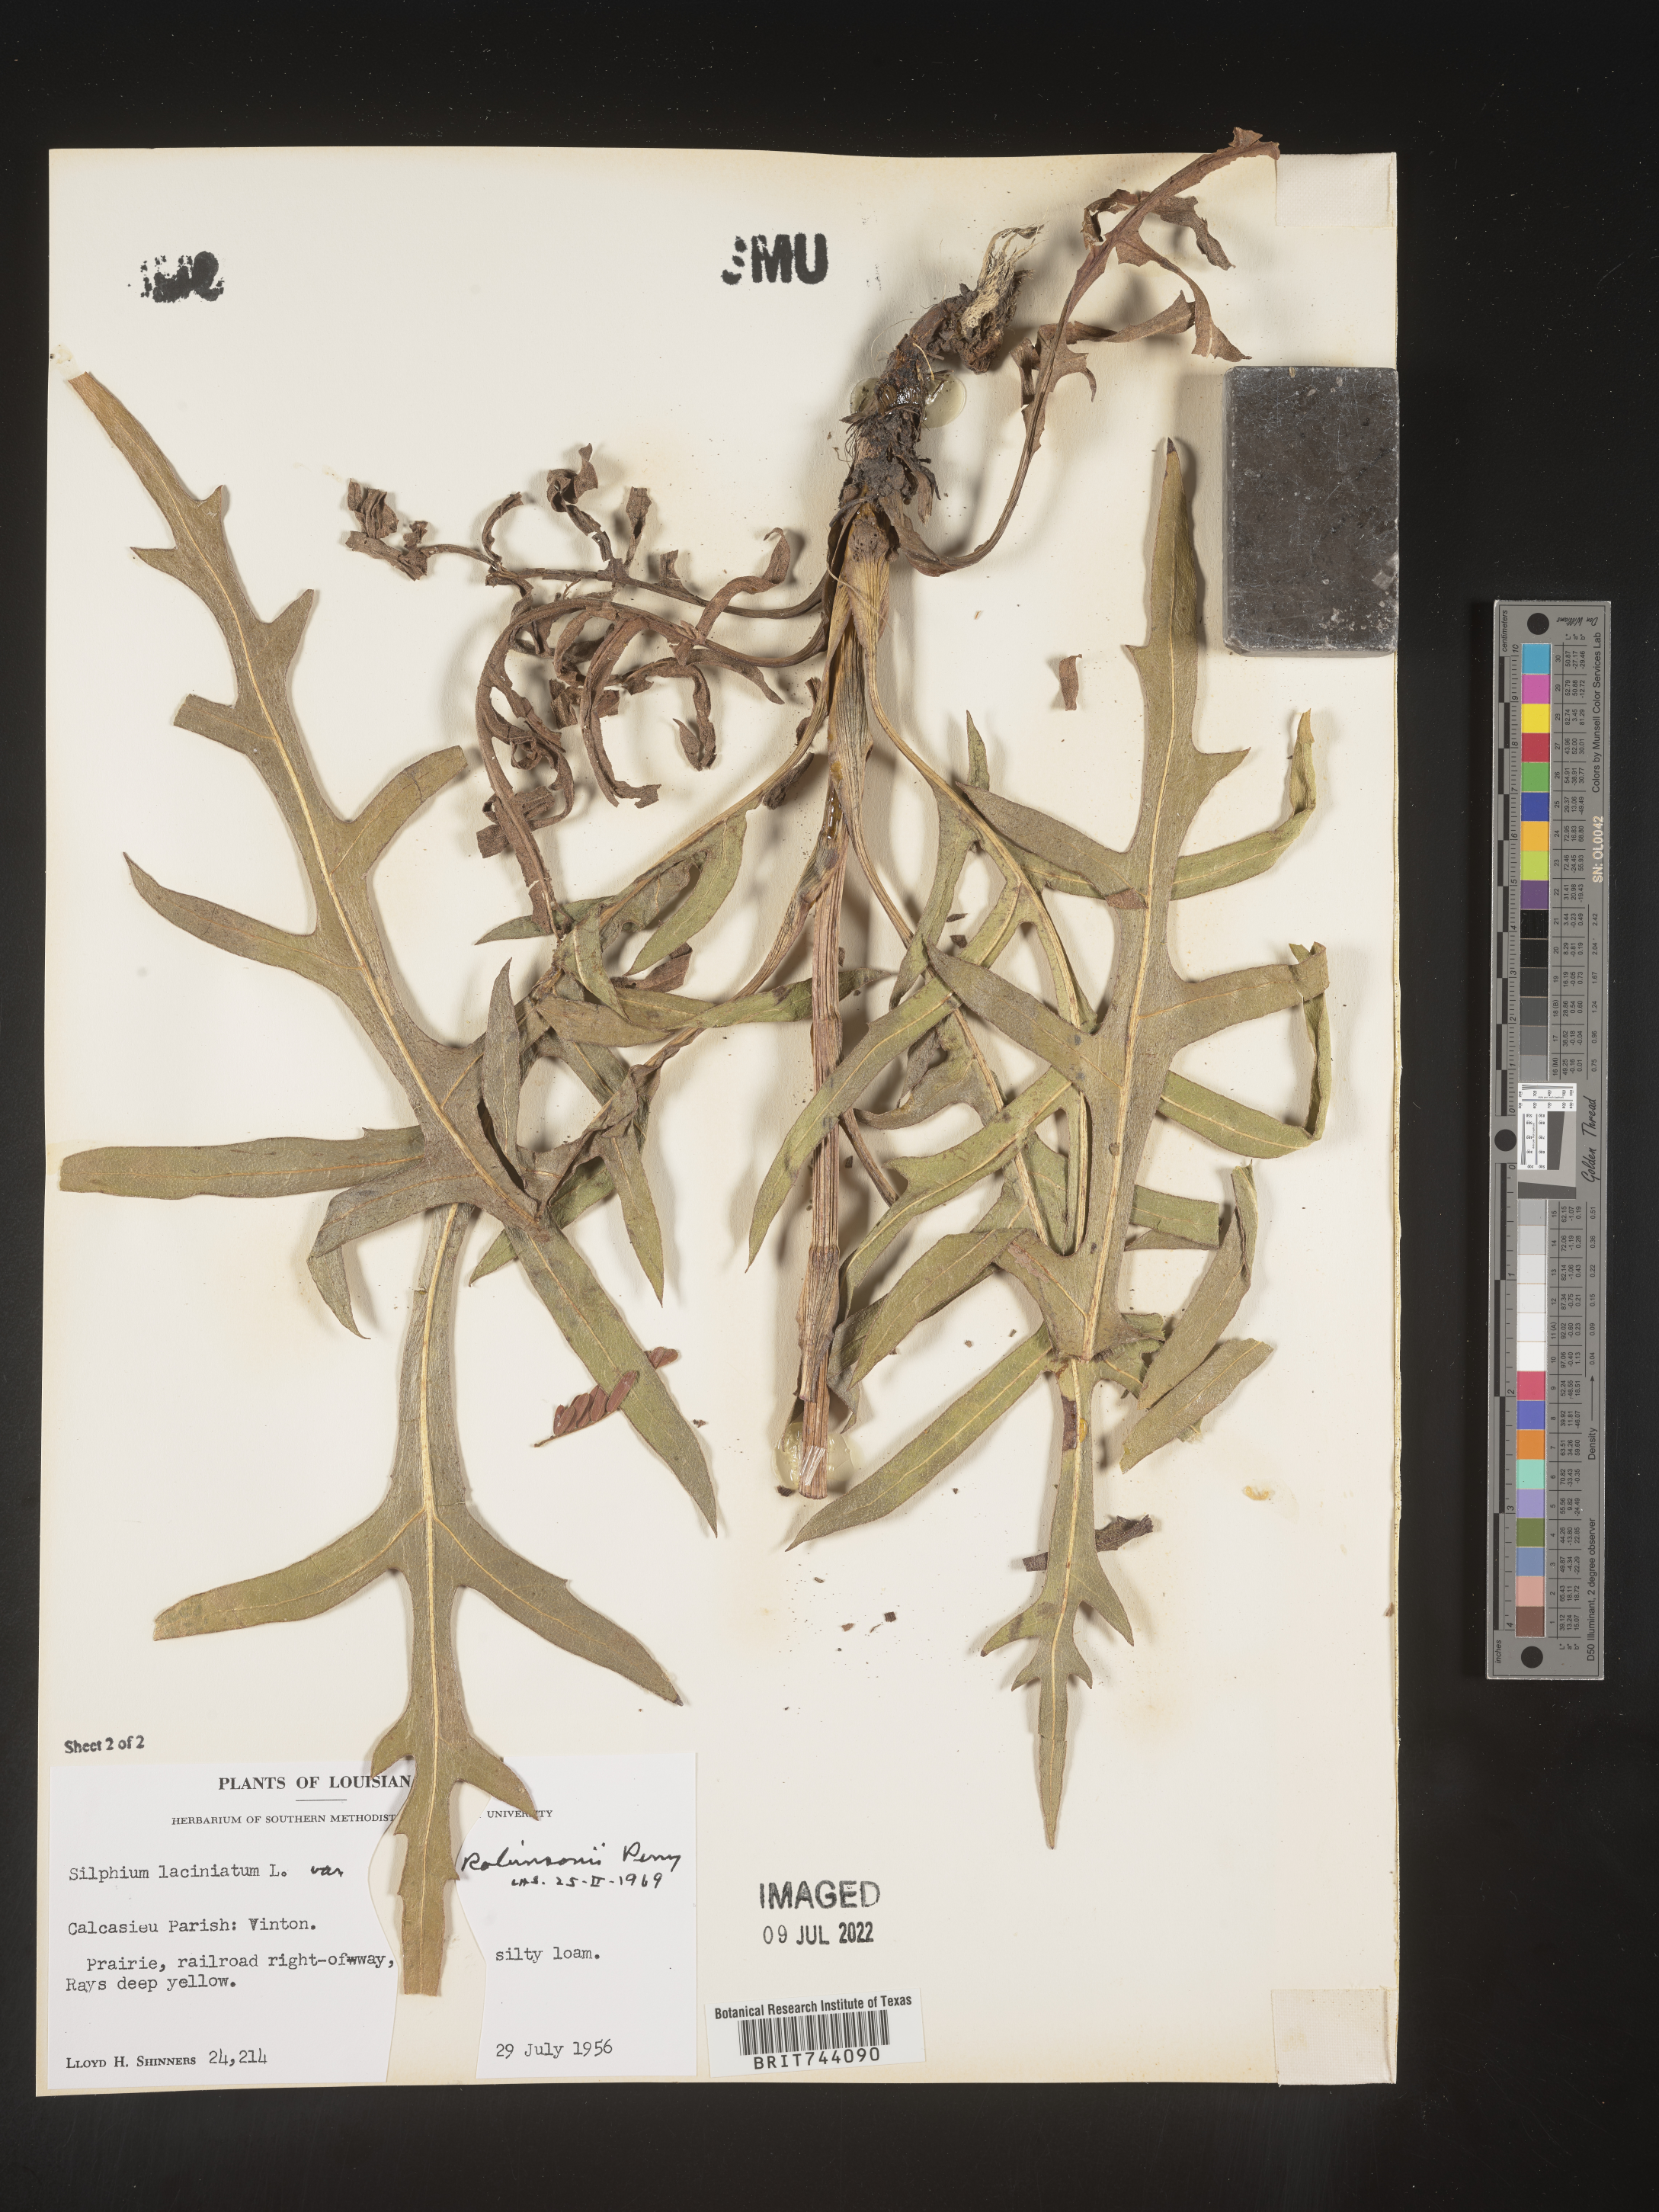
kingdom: Plantae
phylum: Tracheophyta
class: Magnoliopsida
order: Asterales
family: Asteraceae
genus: Silphium
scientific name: Silphium laciniatum
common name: Polarplant
